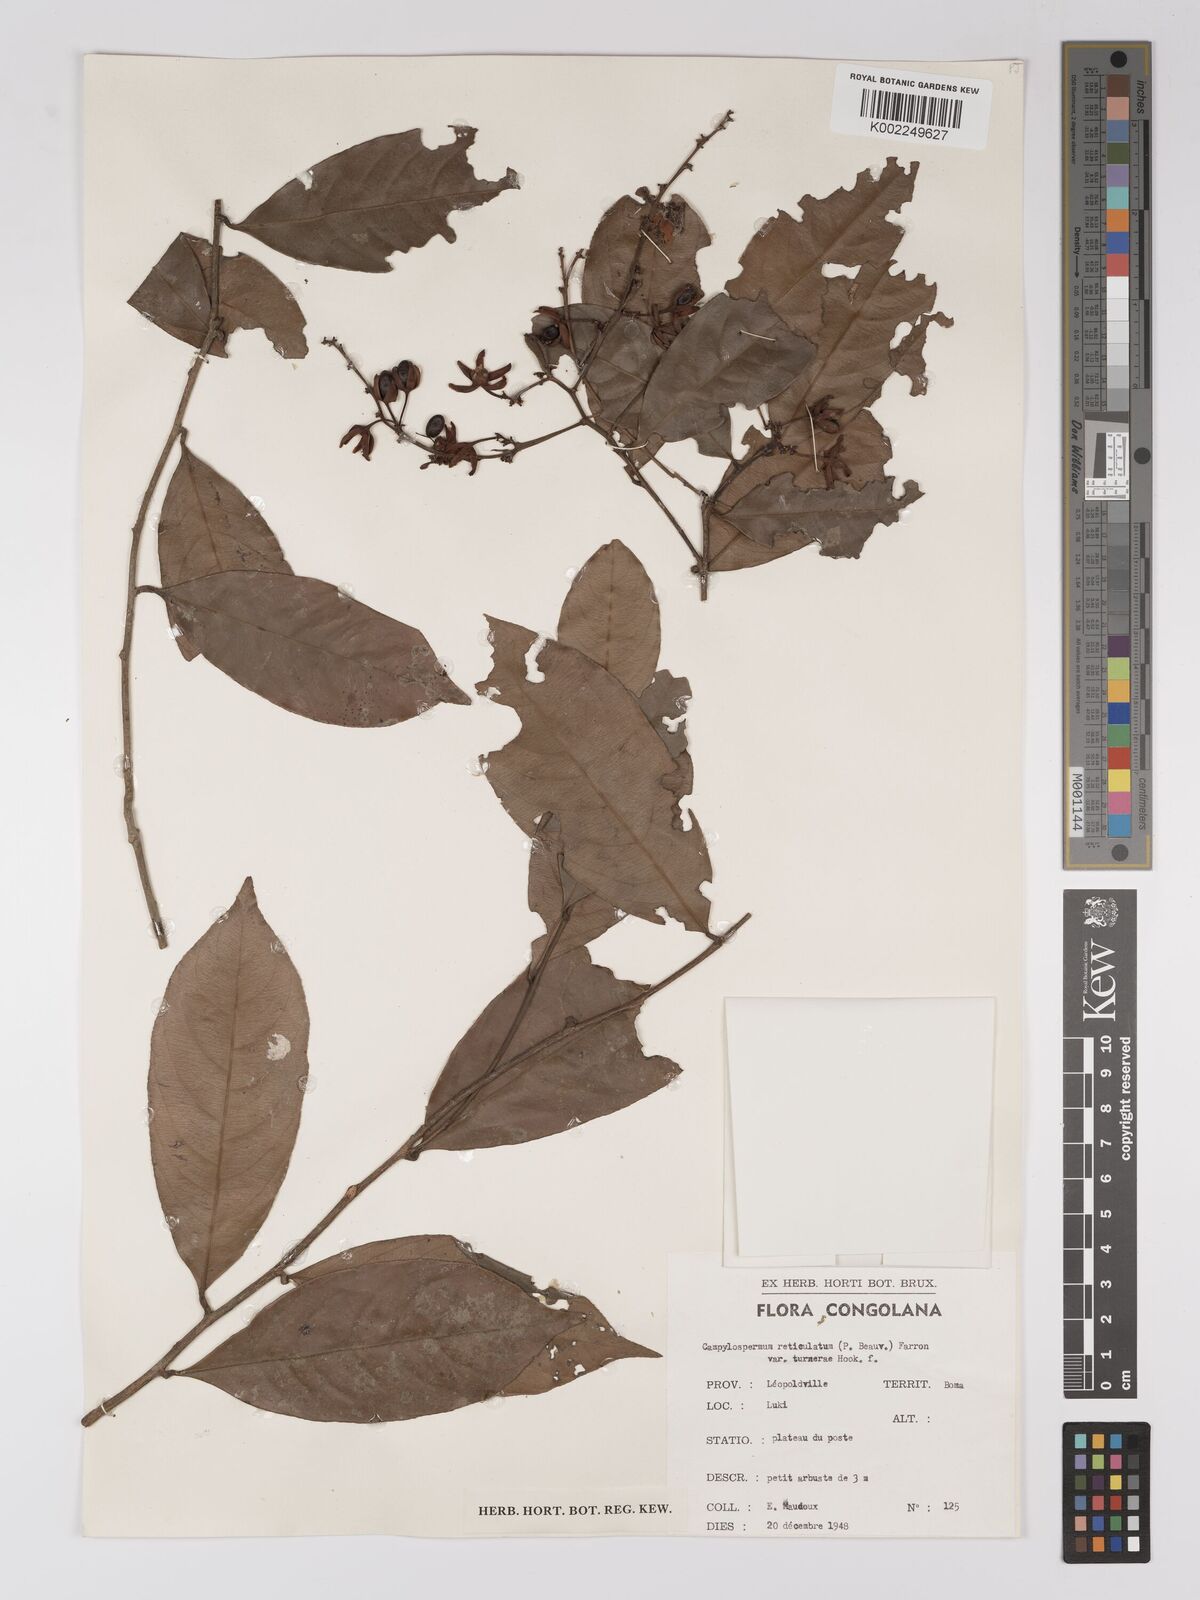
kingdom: Plantae
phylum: Tracheophyta
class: Magnoliopsida
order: Malpighiales
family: Ochnaceae
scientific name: Ochnaceae
